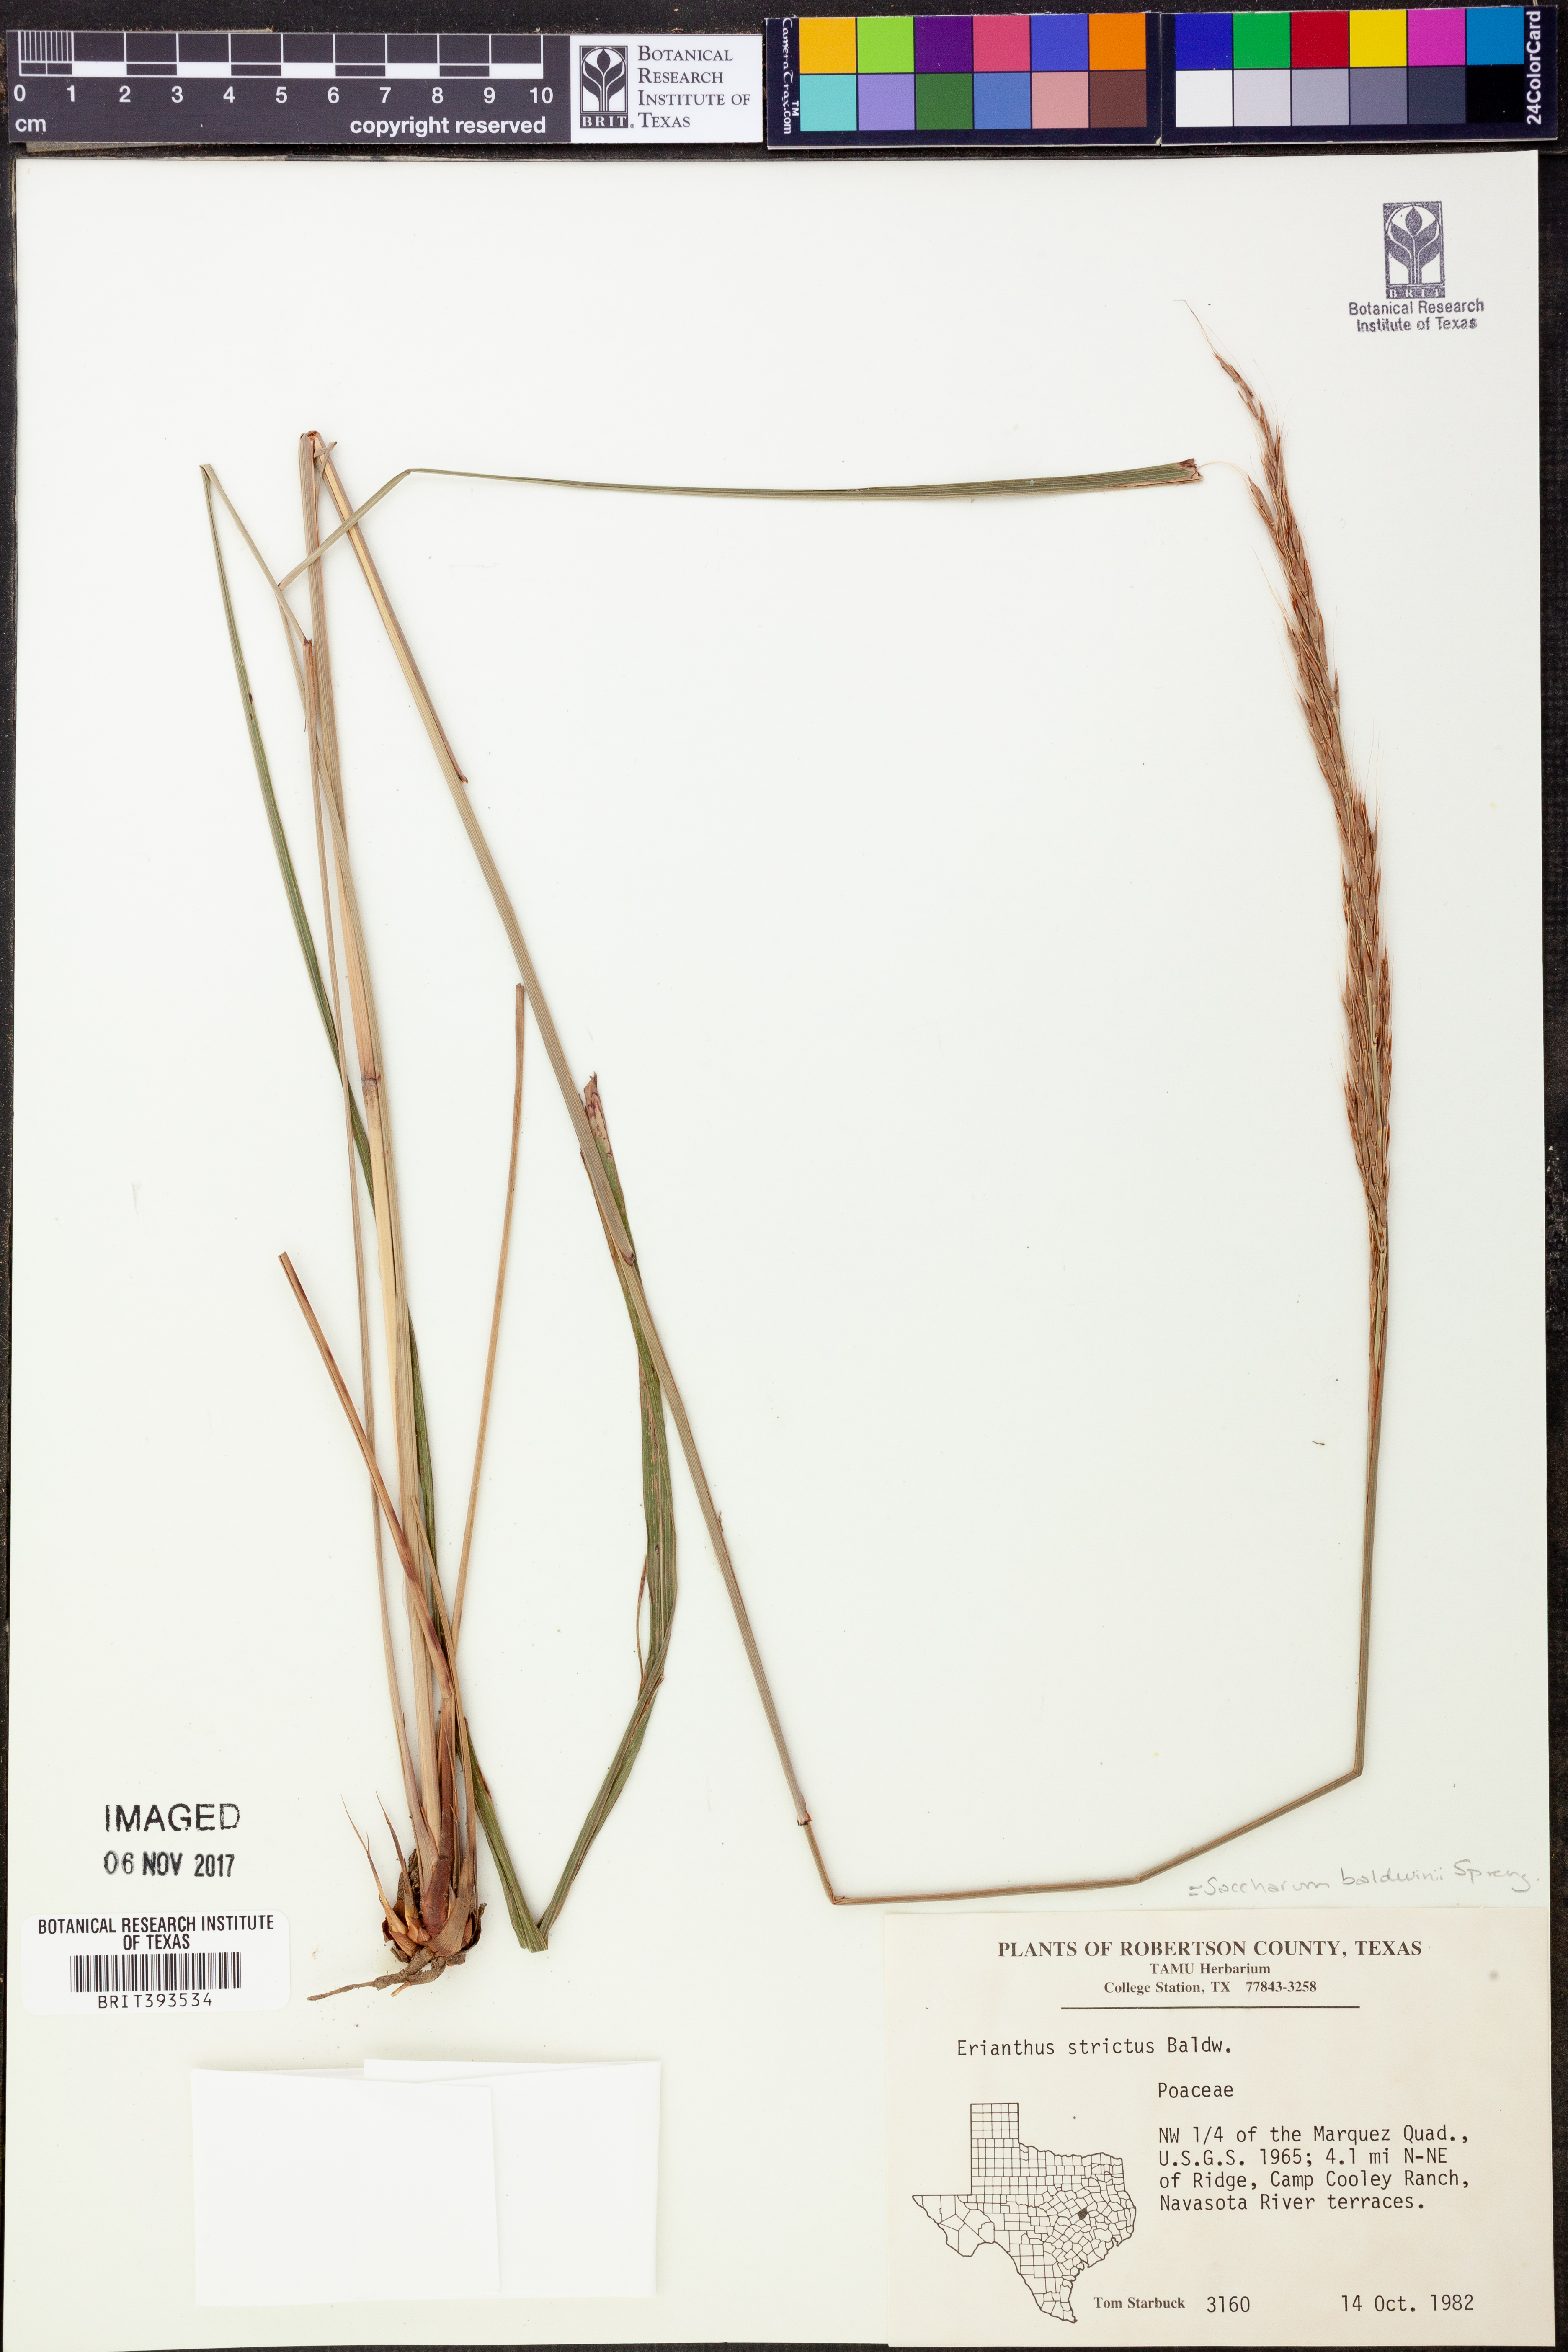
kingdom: Plantae
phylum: Tracheophyta
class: Liliopsida
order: Poales
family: Poaceae
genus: Erianthus
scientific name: Erianthus strictus
